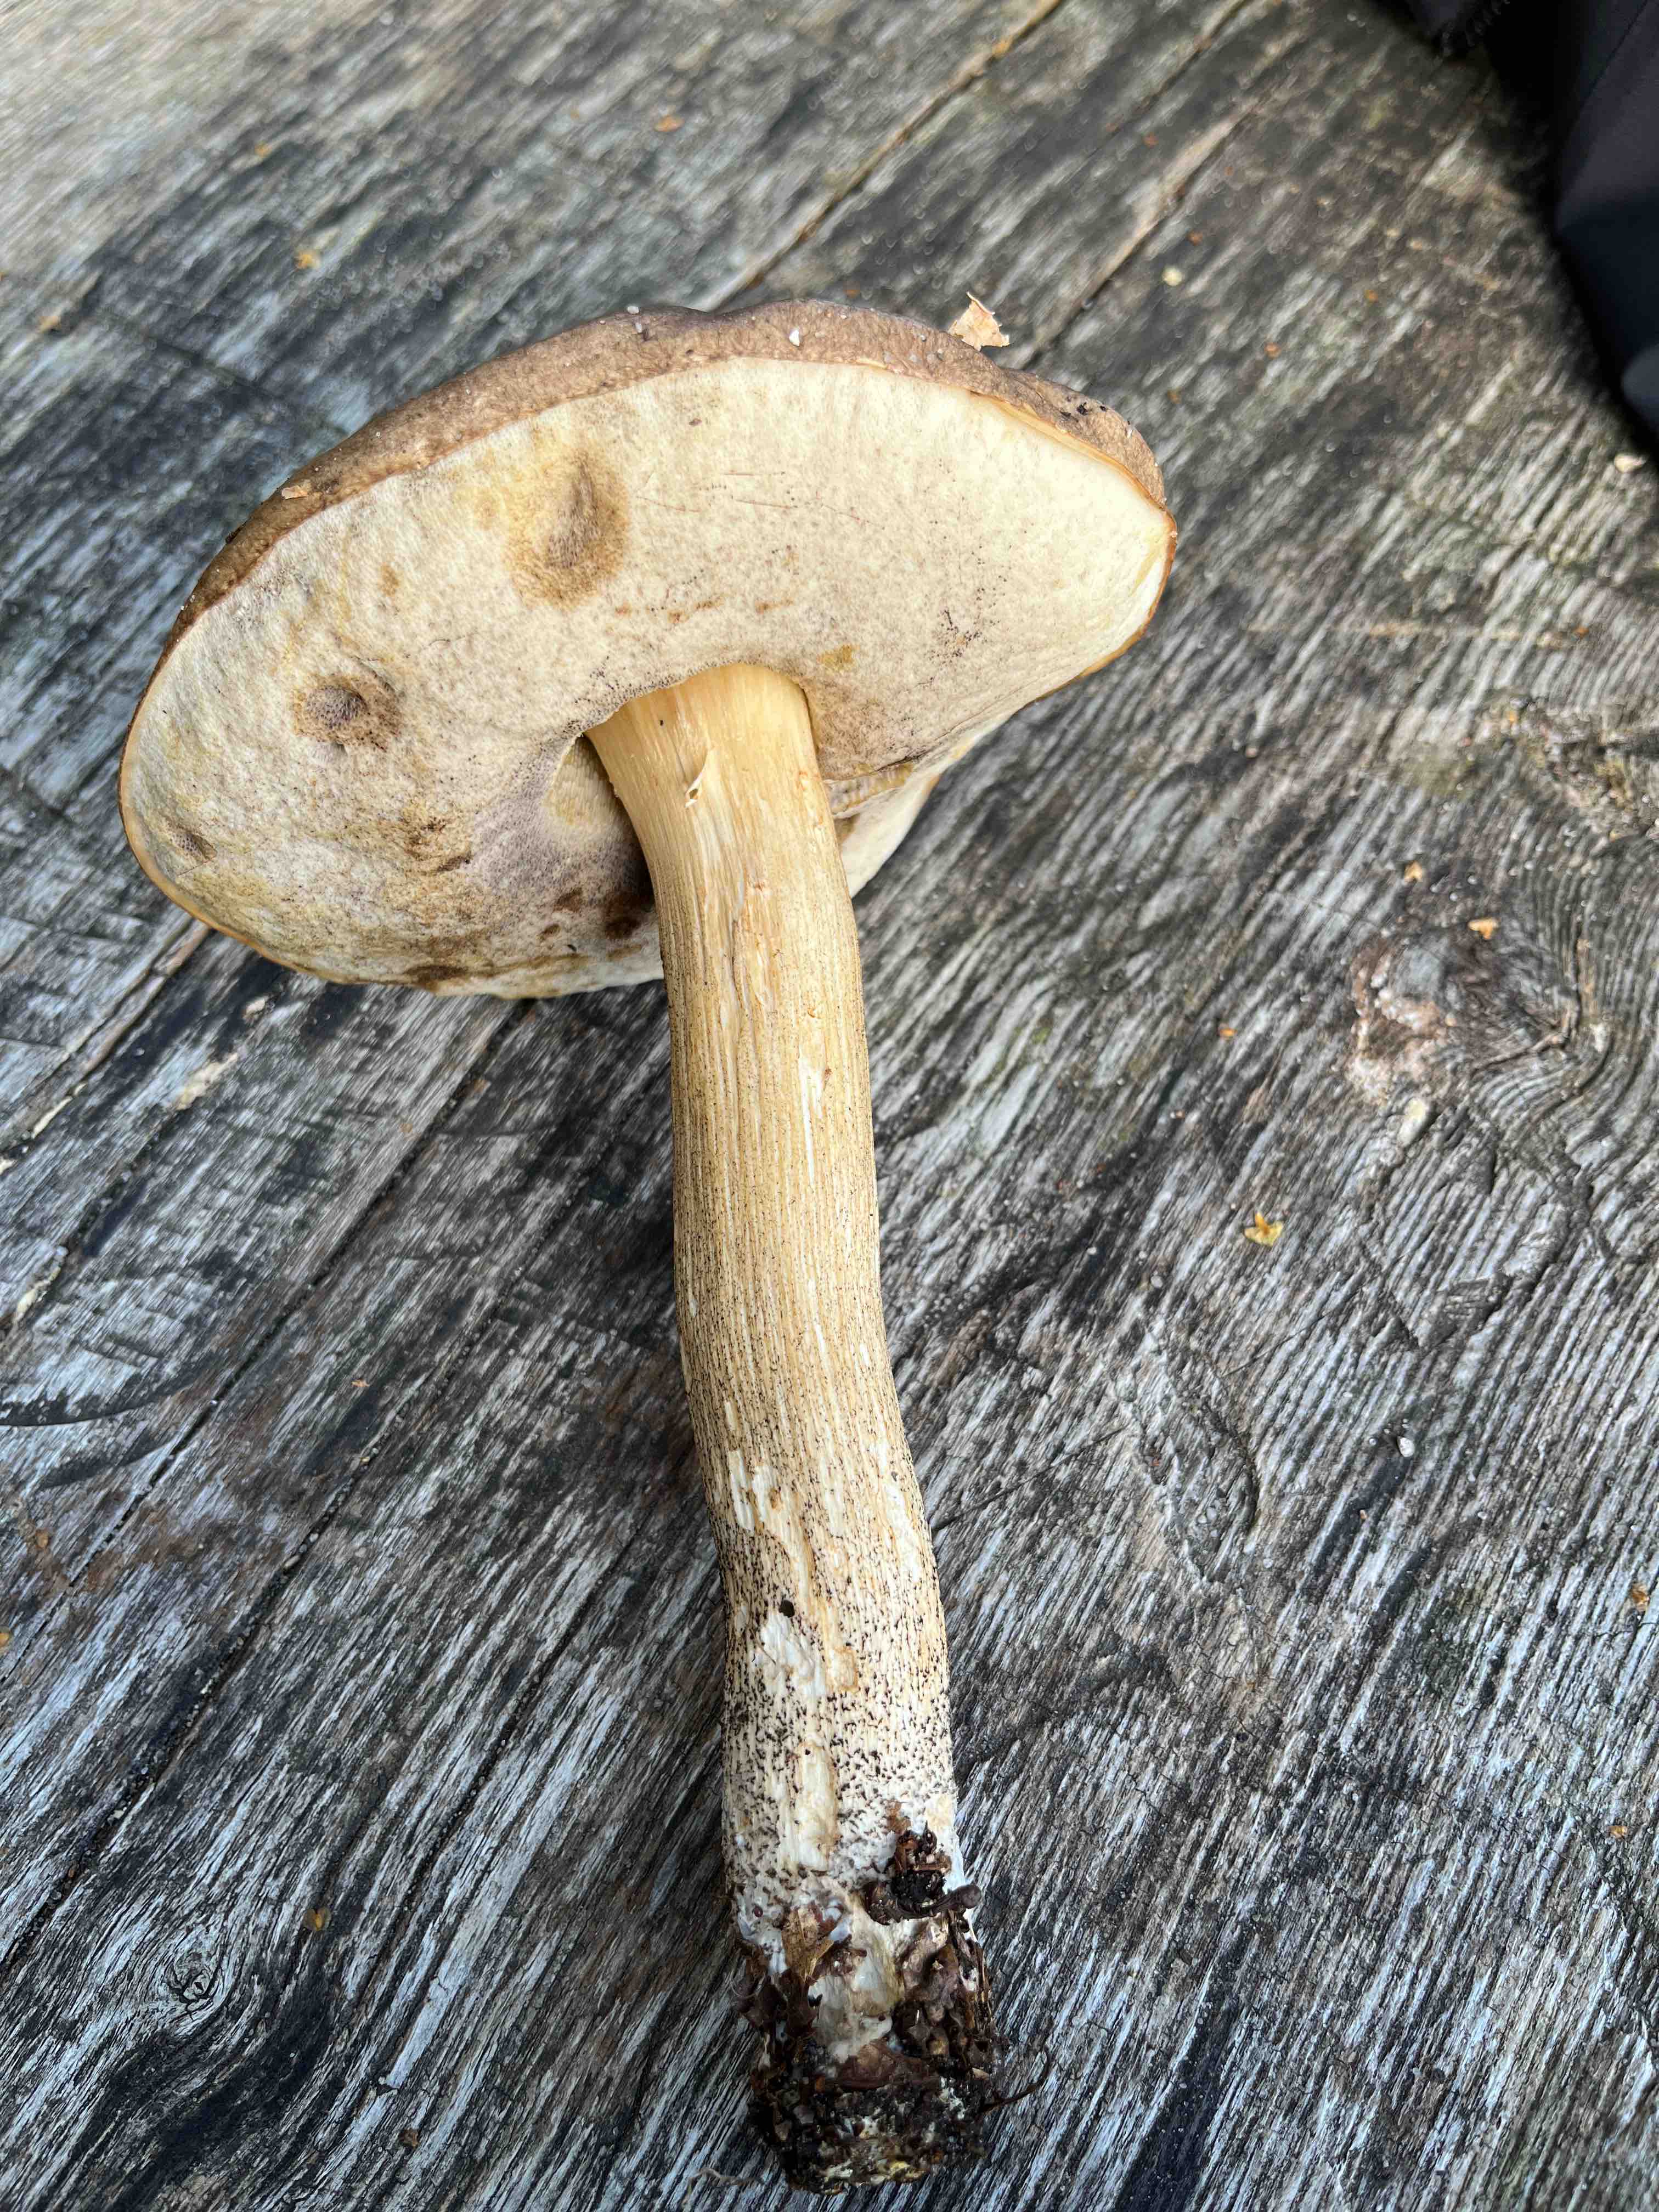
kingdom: Fungi
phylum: Basidiomycota
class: Agaricomycetes
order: Boletales
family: Boletaceae
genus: Leccinum
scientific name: Leccinum
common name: skælrørhat
